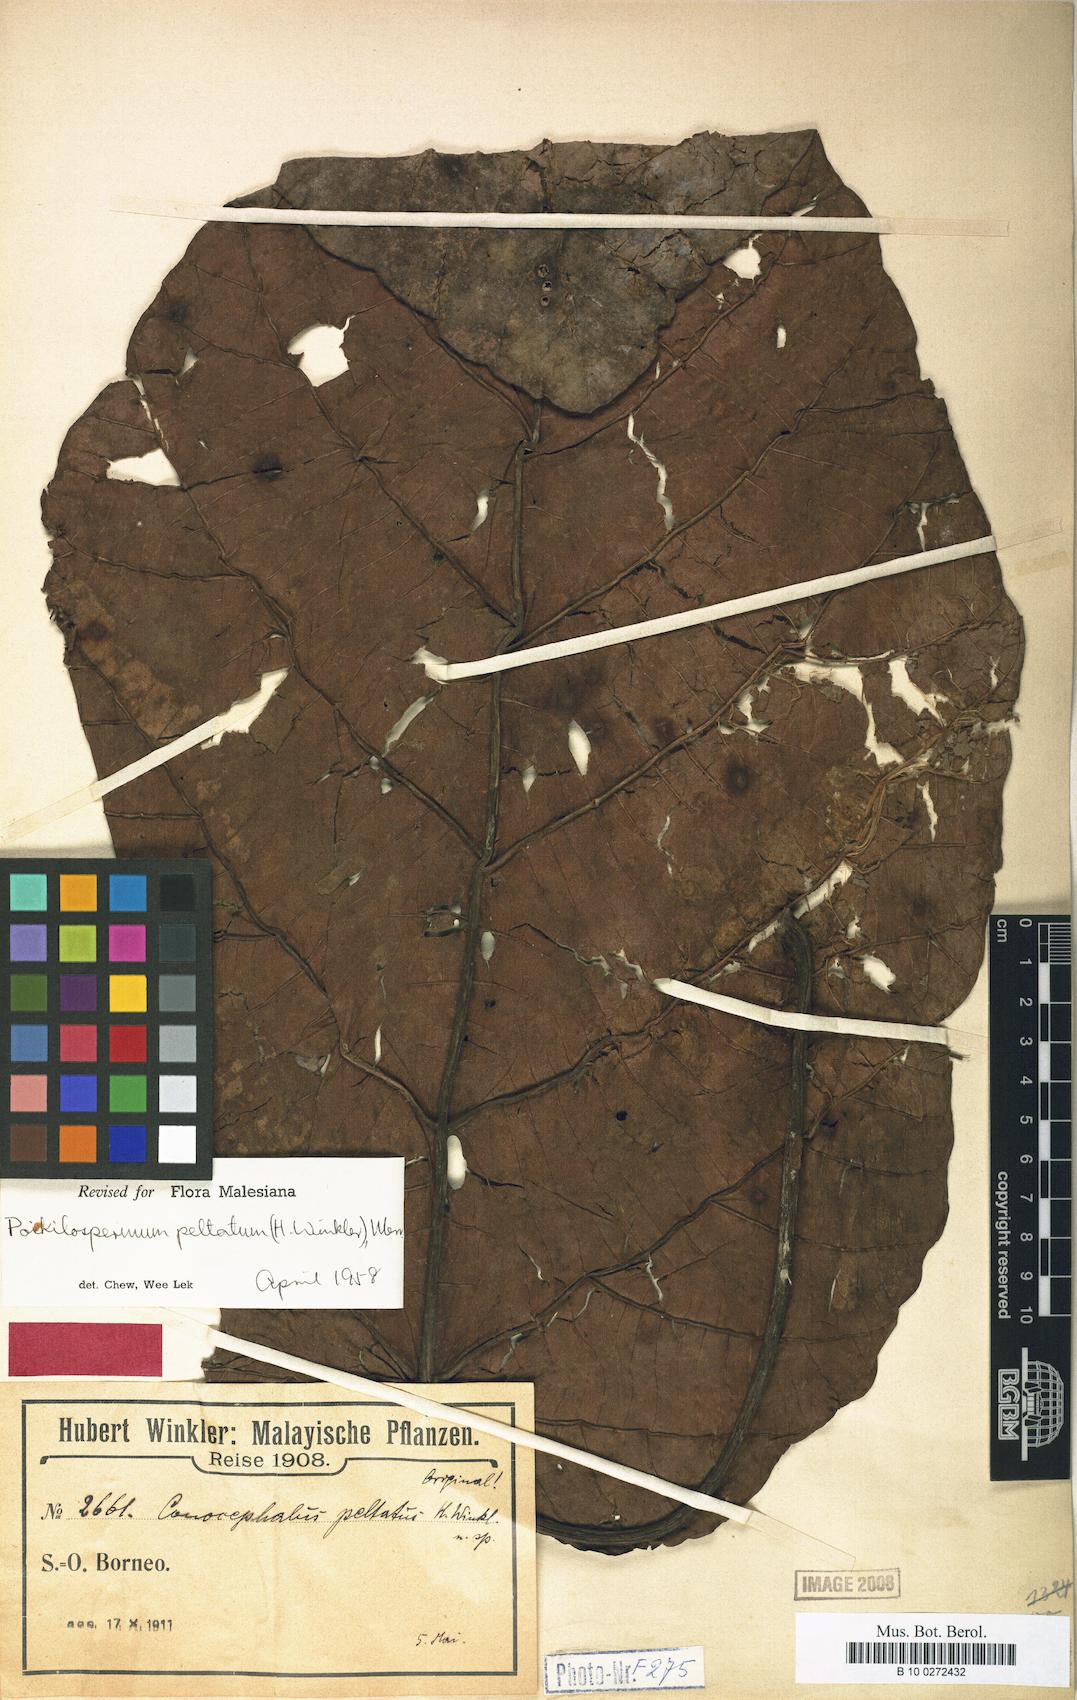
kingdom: Plantae
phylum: Tracheophyta
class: Magnoliopsida
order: Rosales
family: Urticaceae
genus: Poikilospermum
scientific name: Poikilospermum peltatum
